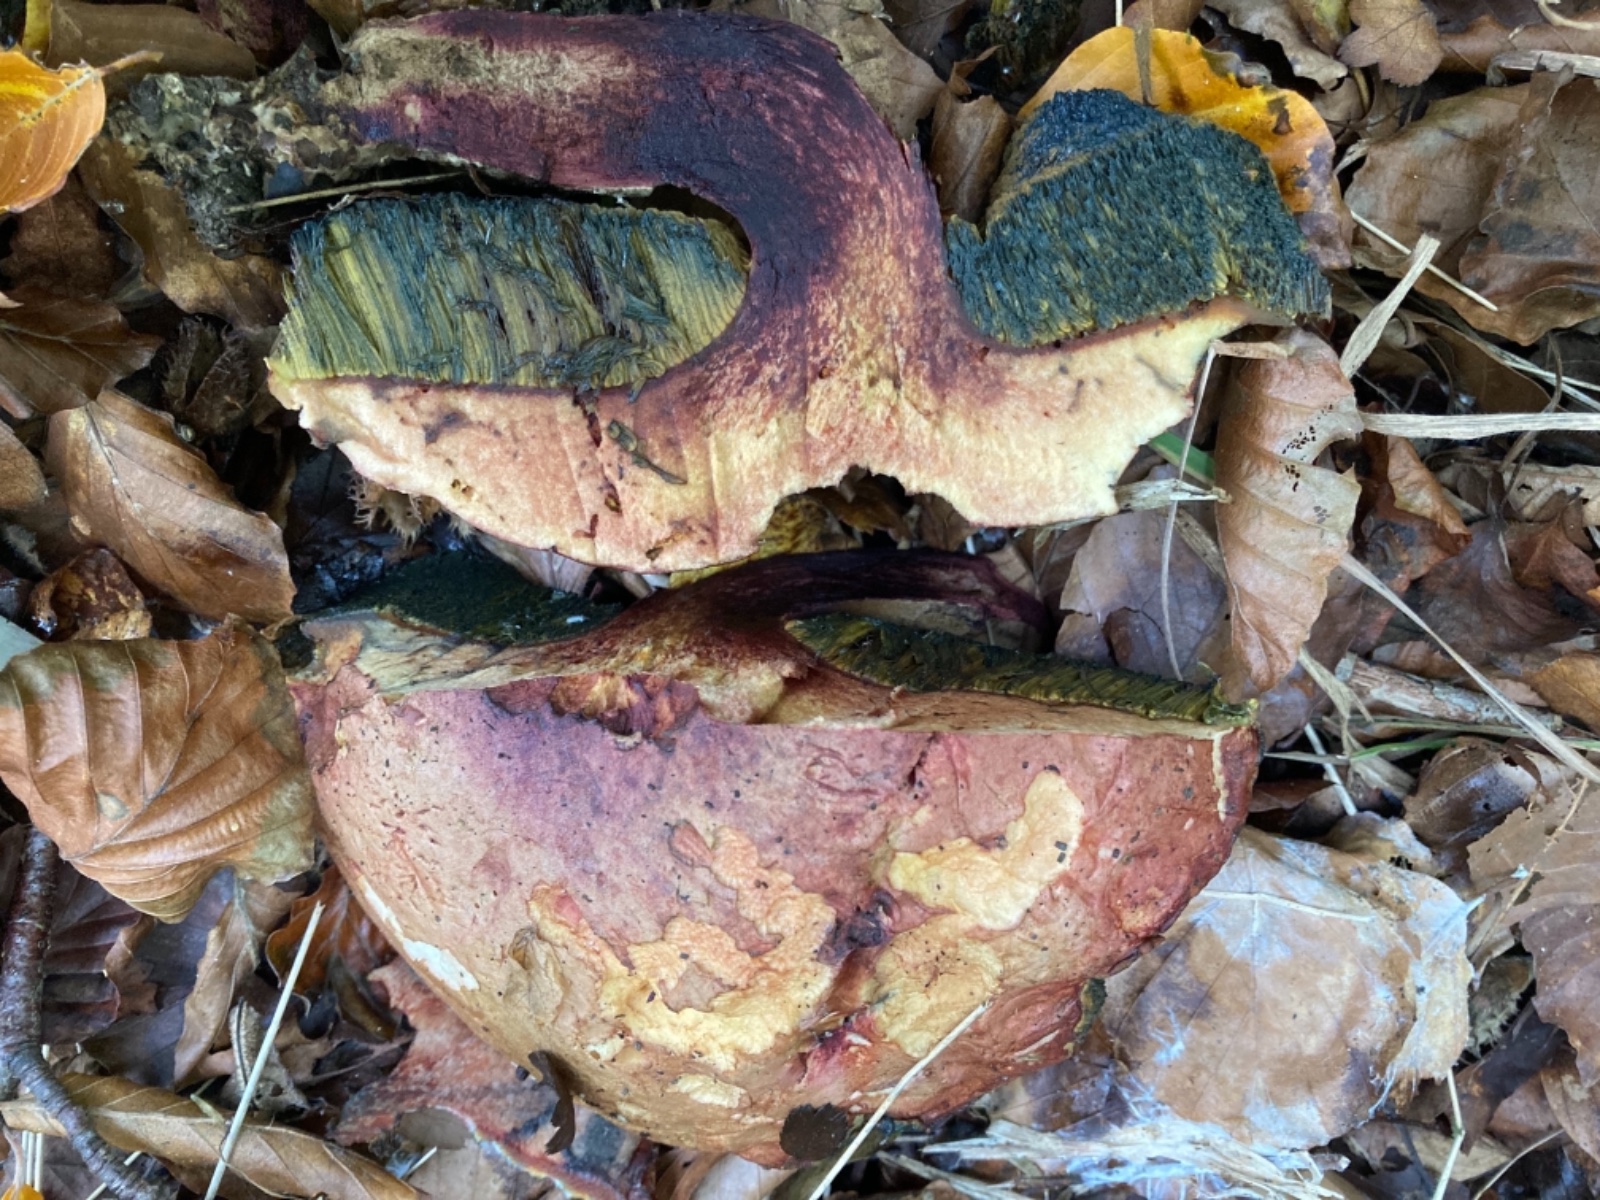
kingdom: Fungi
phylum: Basidiomycota
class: Agaricomycetes
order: Boletales
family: Boletaceae
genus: Suillellus
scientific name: Suillellus queletii
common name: glatstokket indigorørhat
